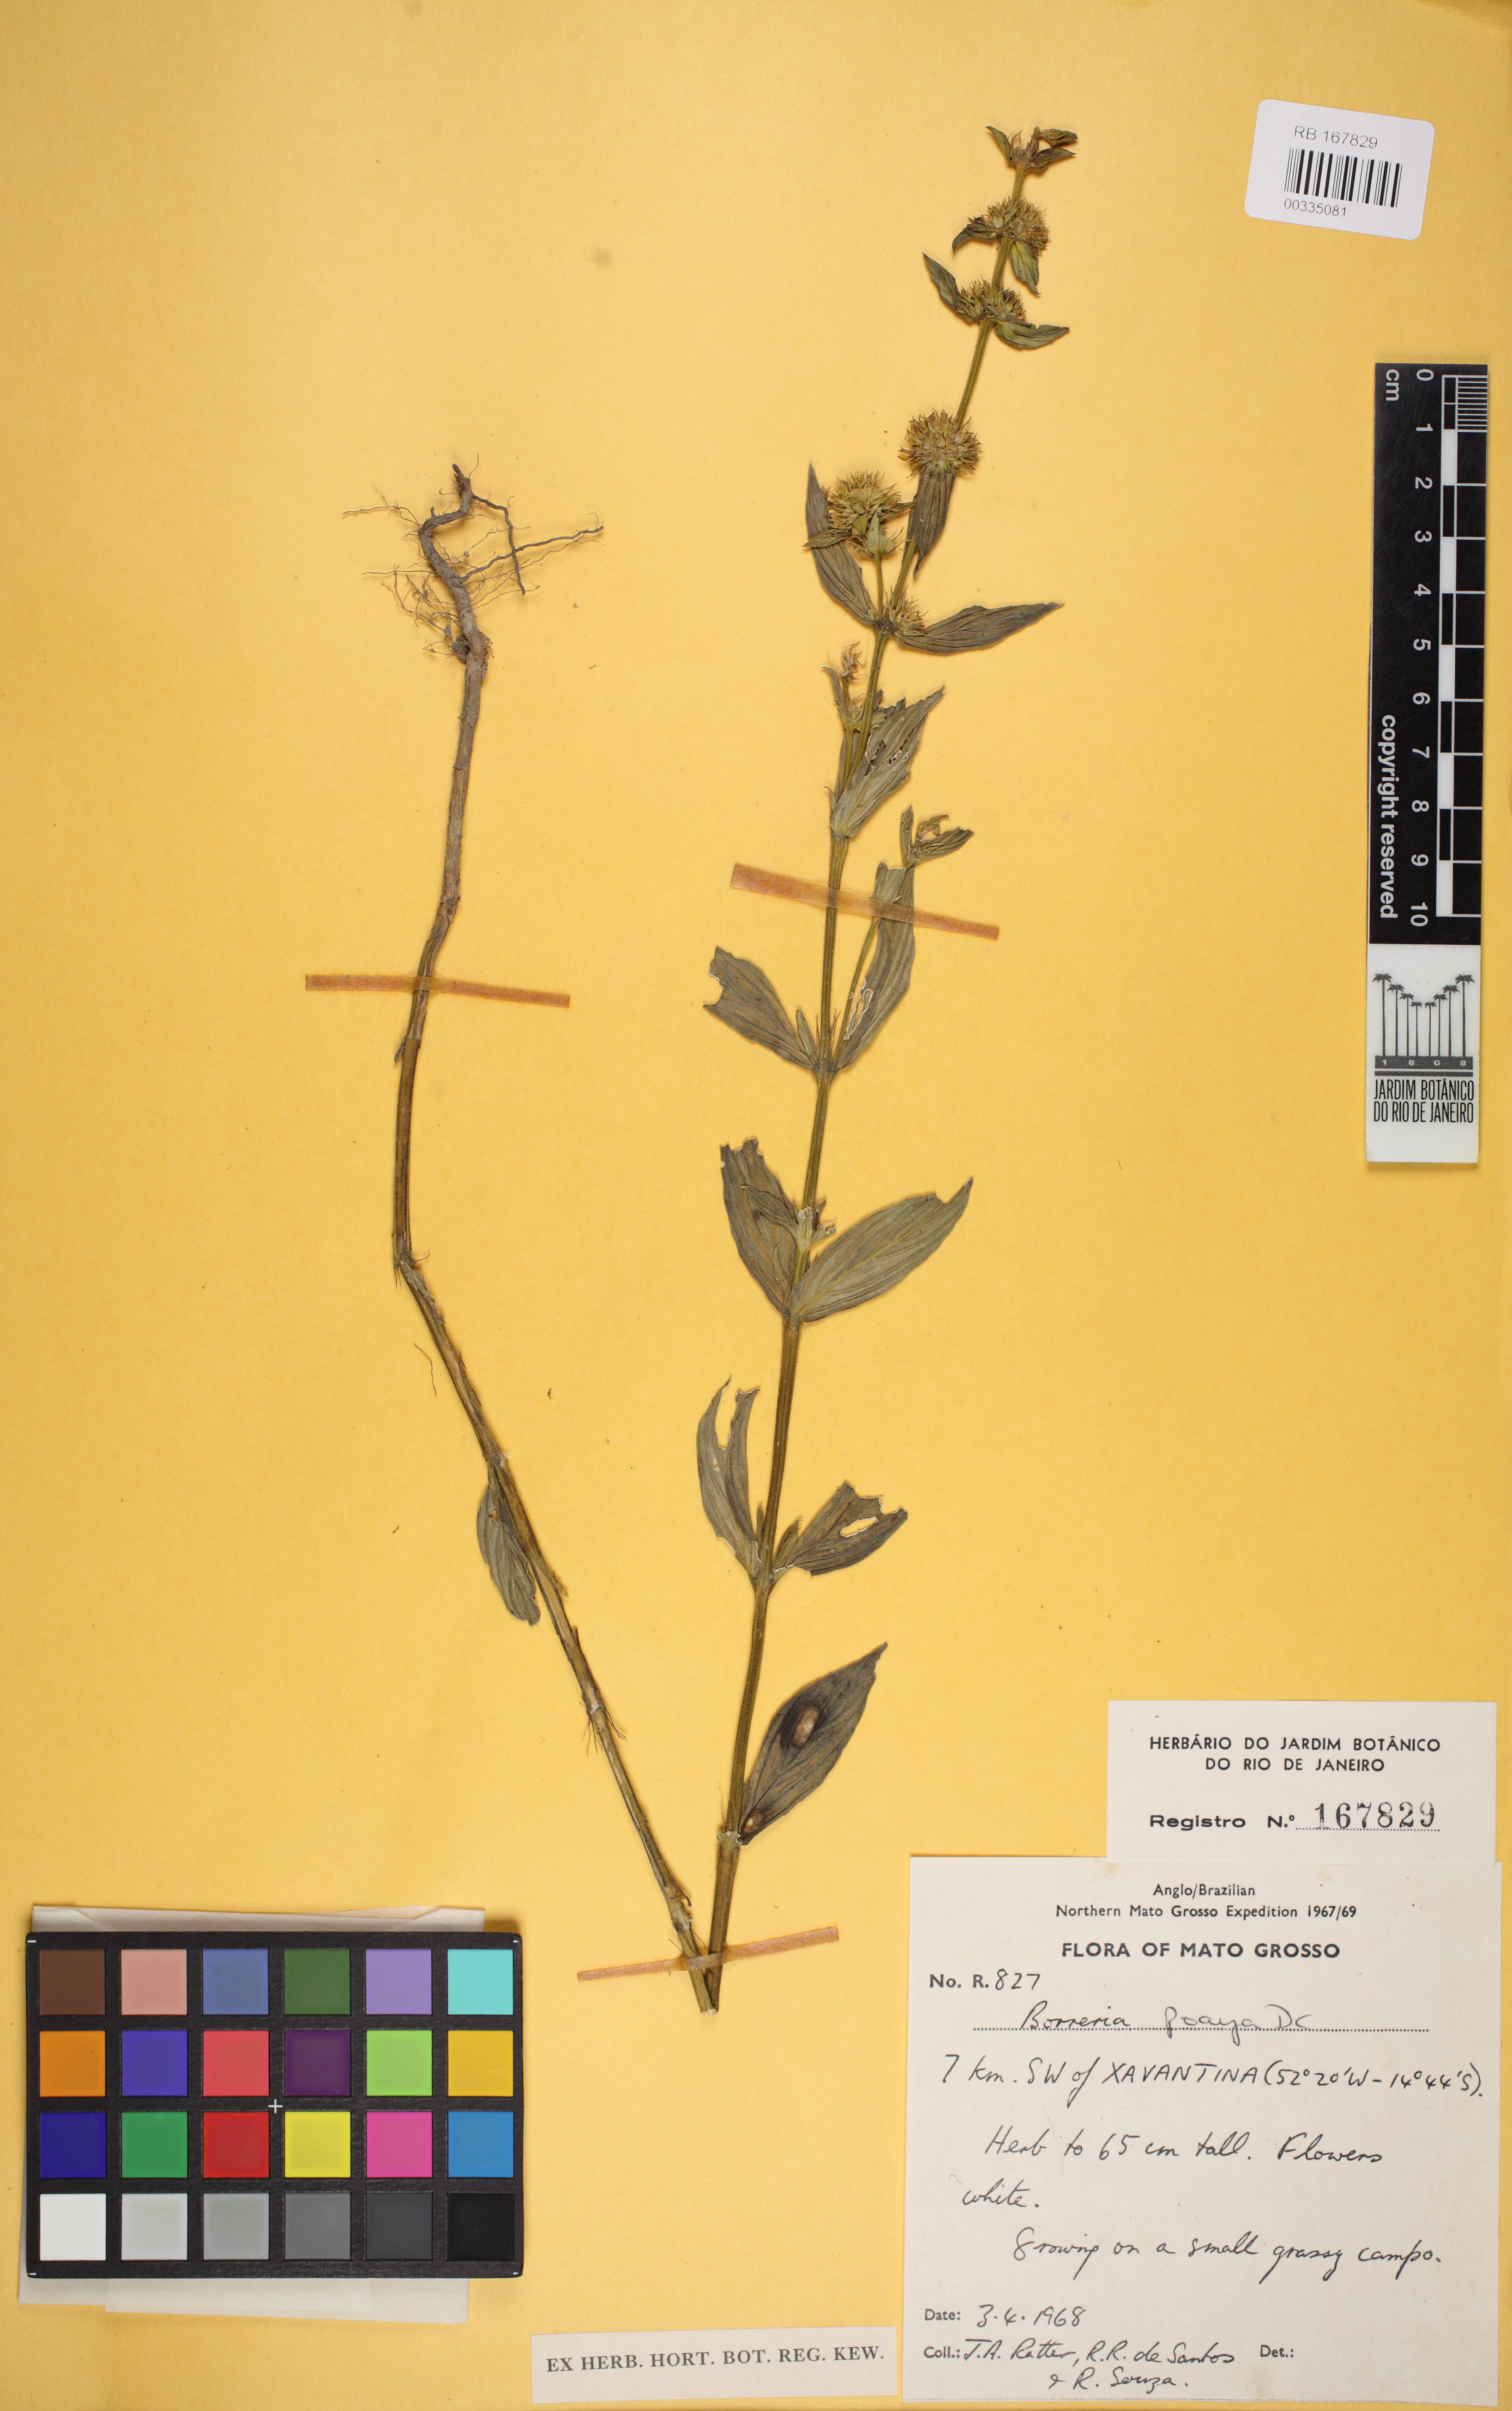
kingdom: Plantae
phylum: Tracheophyta
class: Magnoliopsida
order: Gentianales
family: Rubiaceae
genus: Spermacoce
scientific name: Spermacoce poaya
